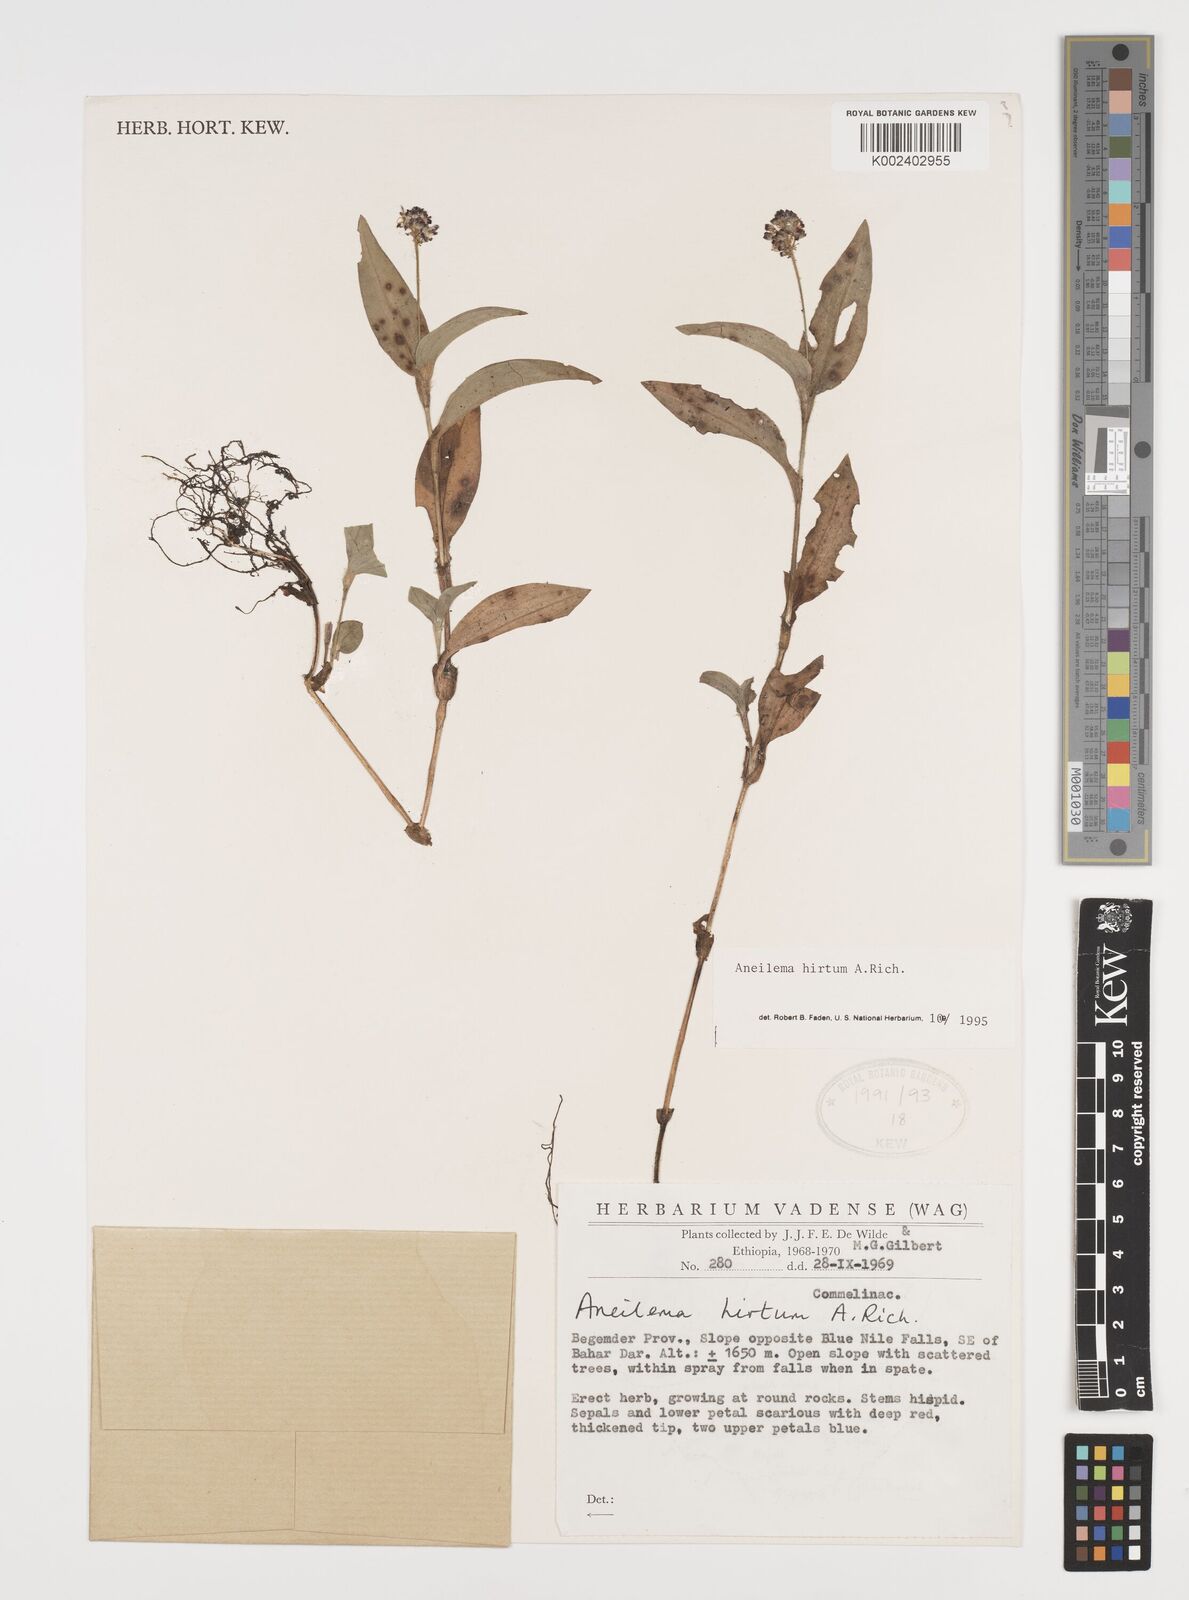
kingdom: Plantae
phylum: Tracheophyta
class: Liliopsida
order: Commelinales
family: Commelinaceae
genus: Aneilema
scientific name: Aneilema hirtum
